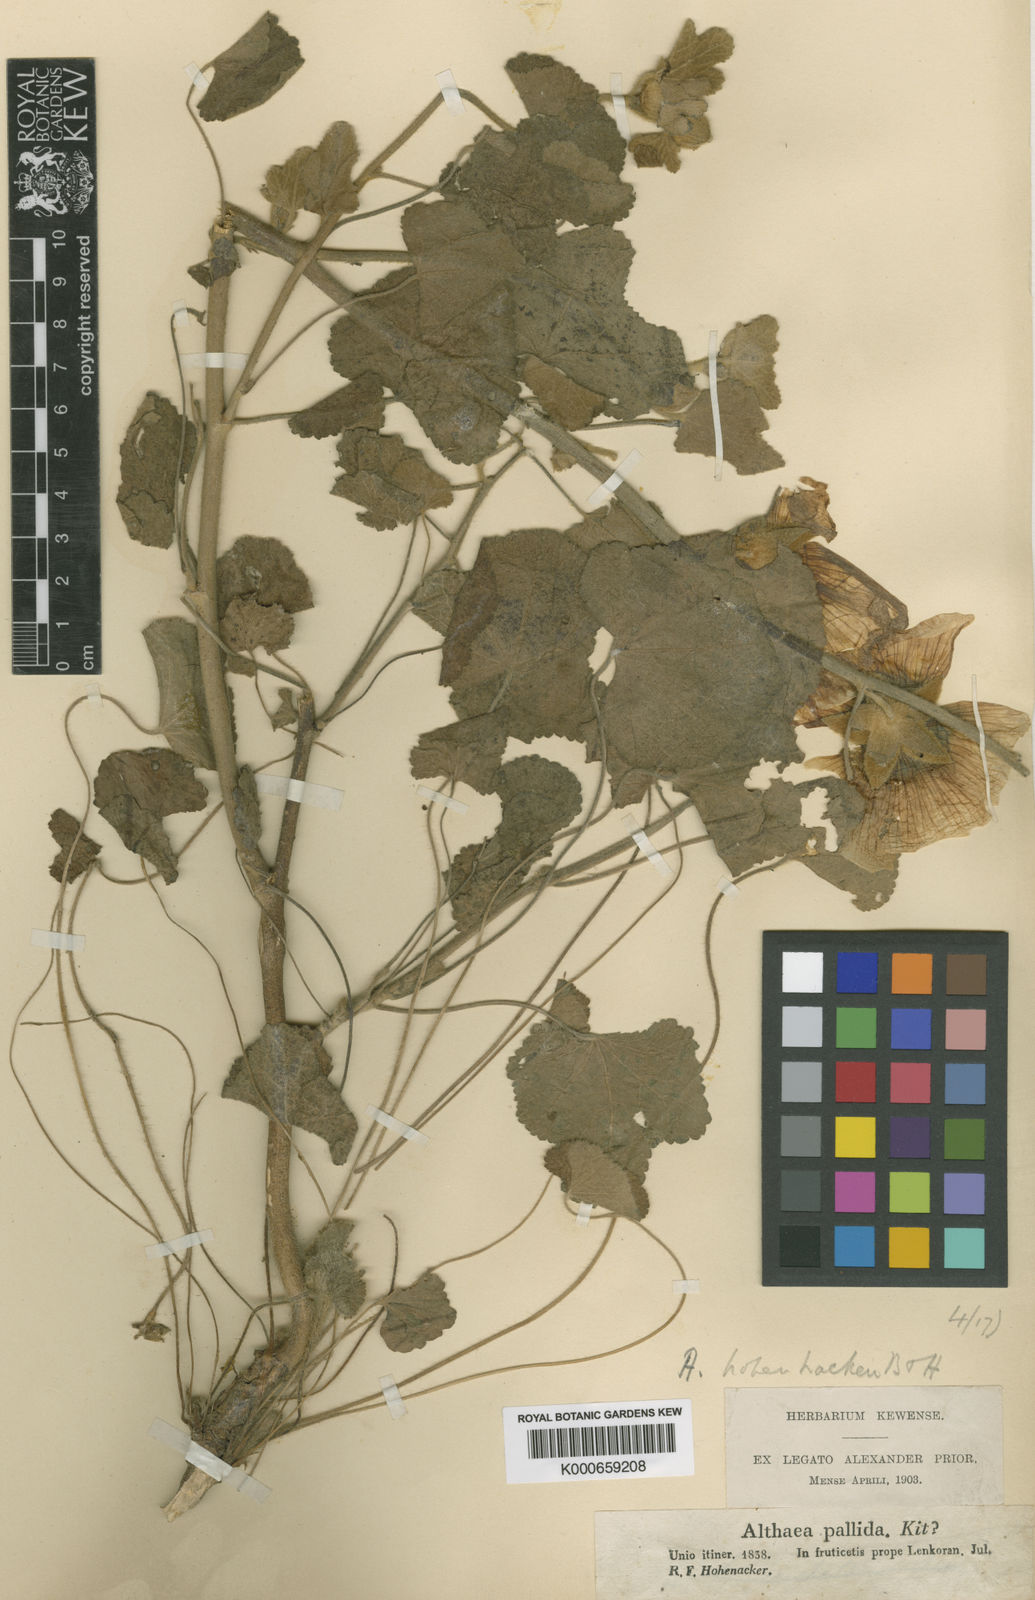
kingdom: Plantae
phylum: Tracheophyta
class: Magnoliopsida
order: Malvales
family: Malvaceae
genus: Alcea
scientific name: Alcea lenkoranica
